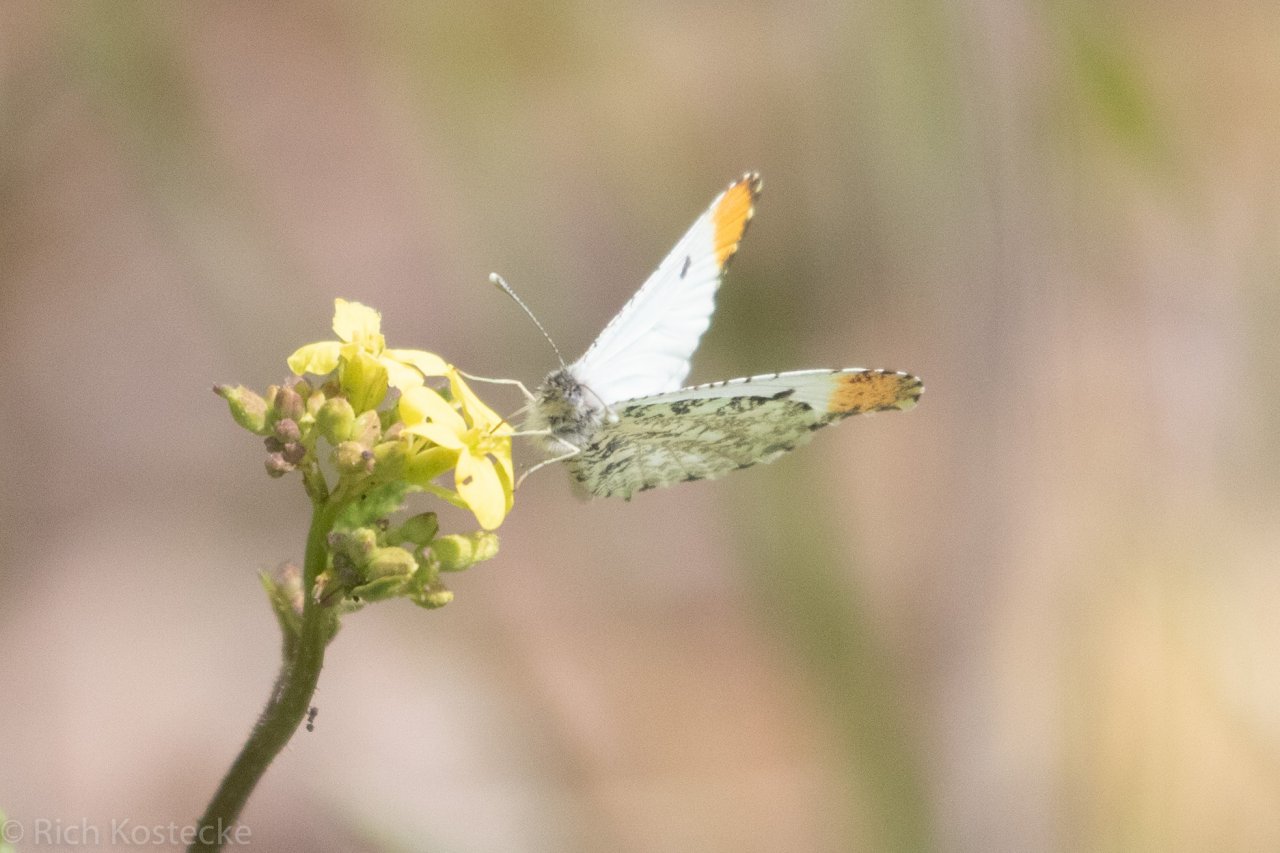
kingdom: Animalia
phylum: Arthropoda
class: Insecta
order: Lepidoptera
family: Pieridae
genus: Anthocharis
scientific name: Anthocharis midea
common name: Falcate Orangetip
